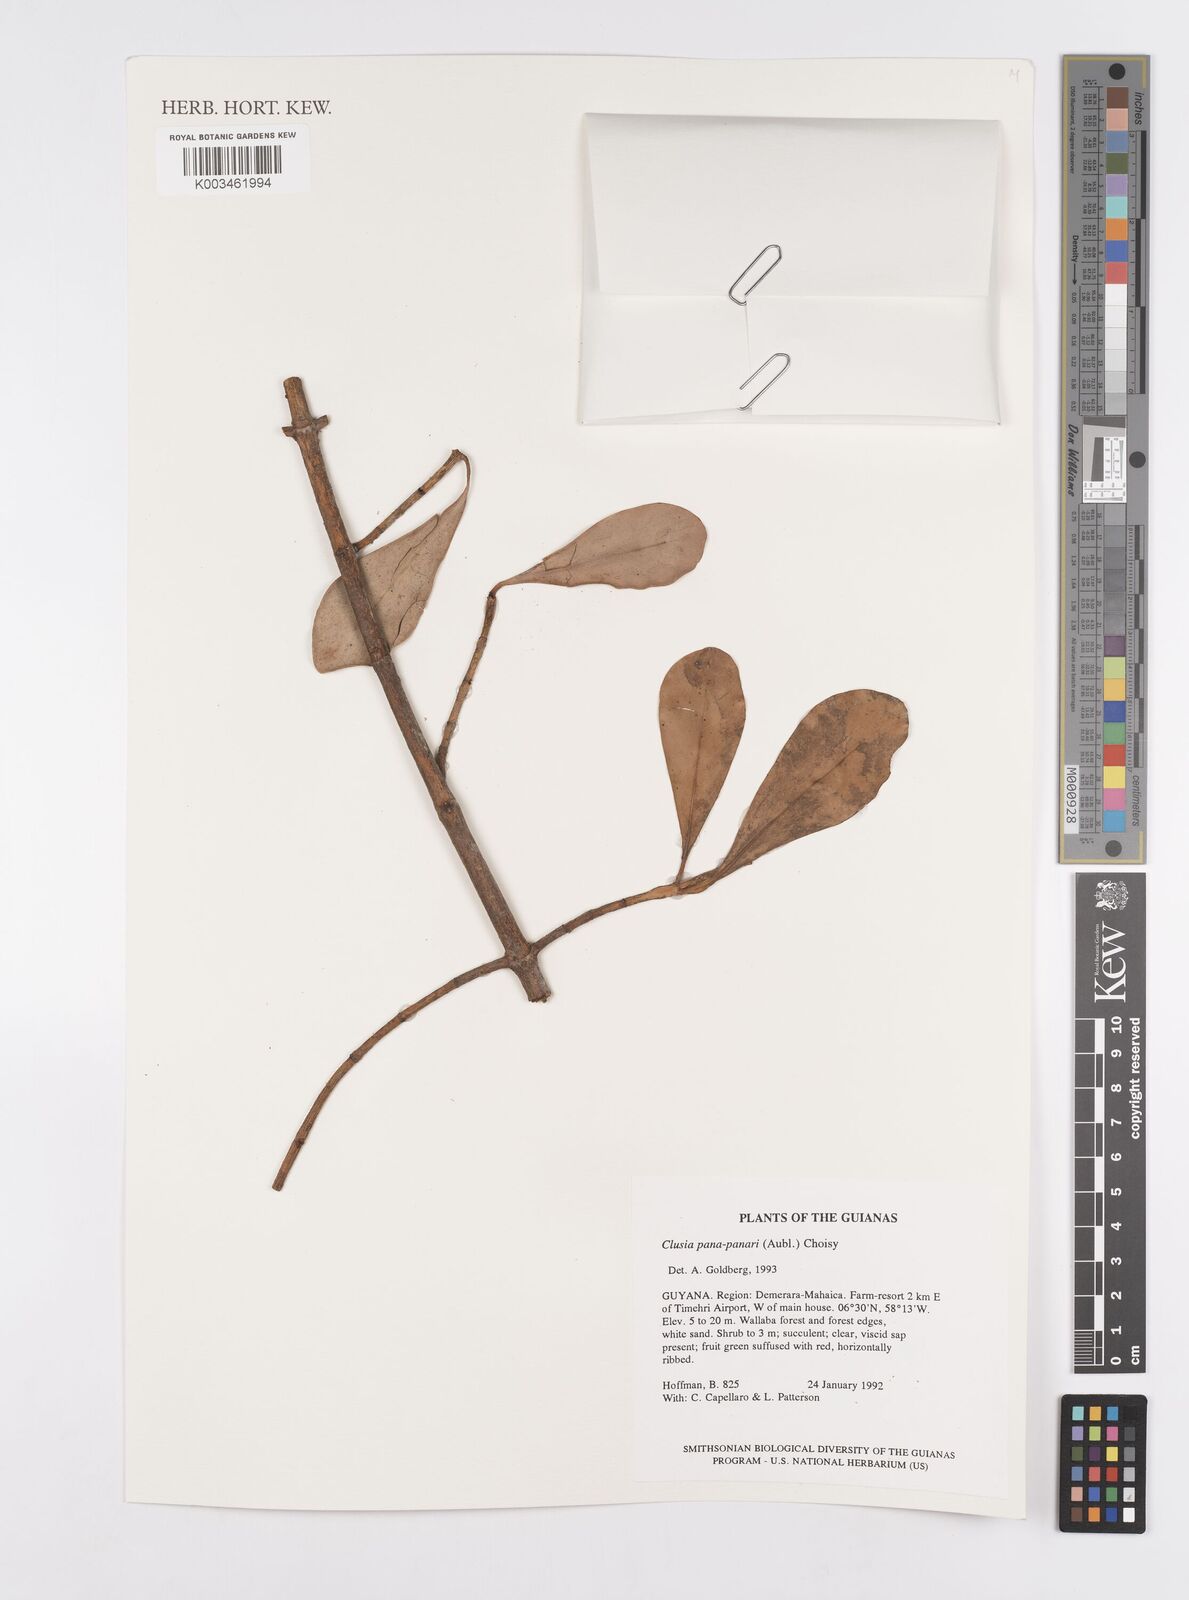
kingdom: Plantae
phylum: Tracheophyta
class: Magnoliopsida
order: Malpighiales
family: Clusiaceae
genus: Clusia
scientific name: Clusia panapanari
